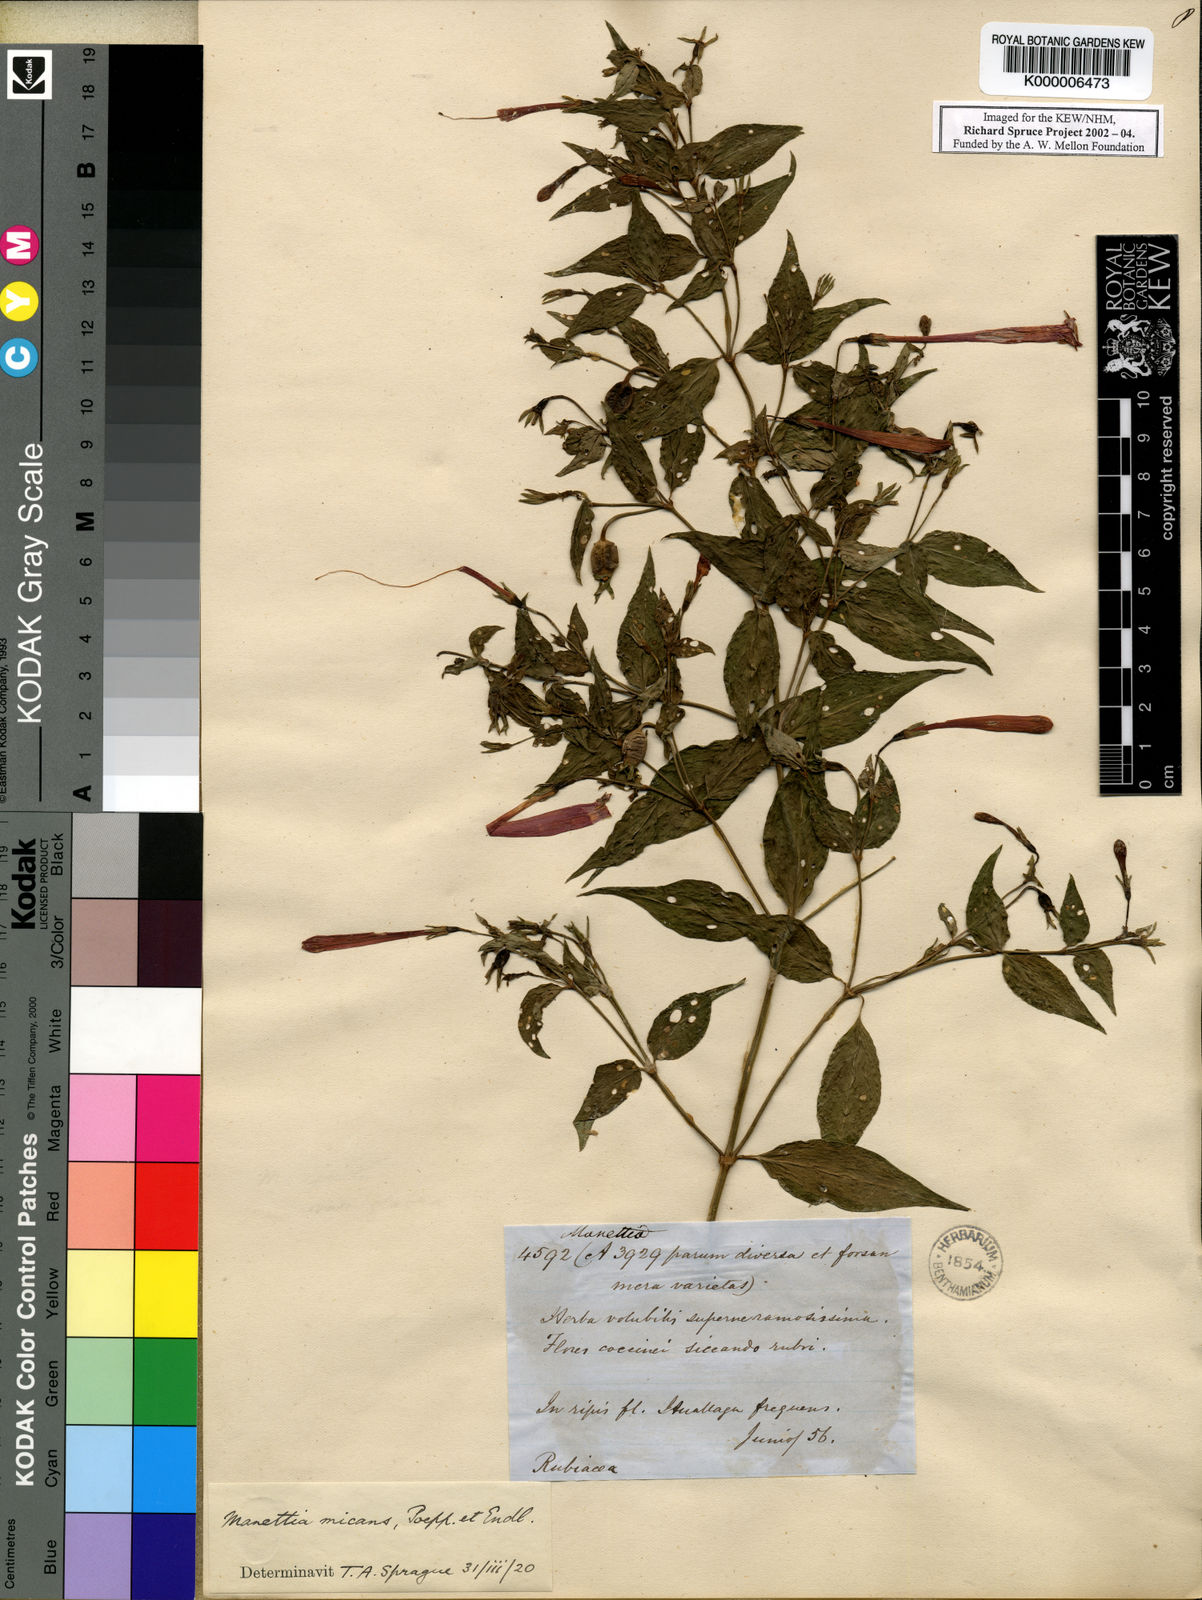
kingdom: Plantae
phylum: Tracheophyta
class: Magnoliopsida
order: Gentianales
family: Rubiaceae
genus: Manettia
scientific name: Manettia cordifolia
